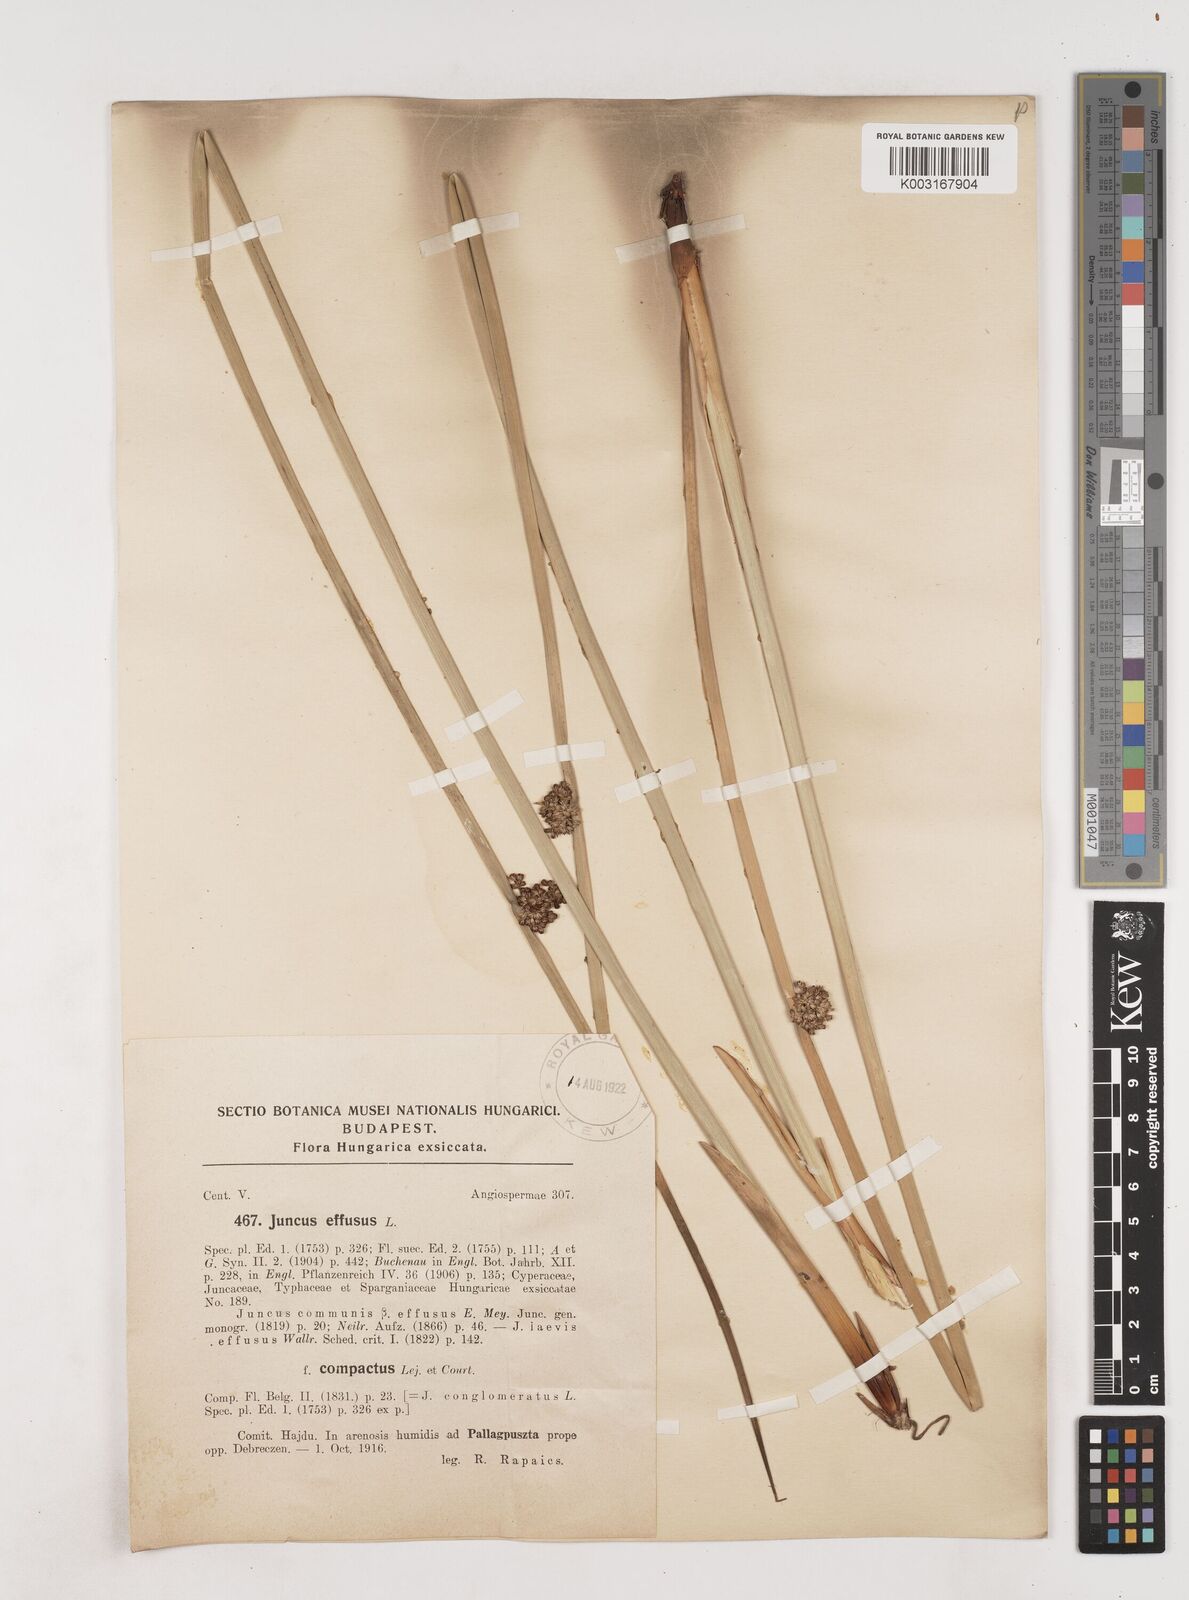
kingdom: Plantae
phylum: Tracheophyta
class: Liliopsida
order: Poales
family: Juncaceae
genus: Juncus
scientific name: Juncus effusus
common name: Soft rush
